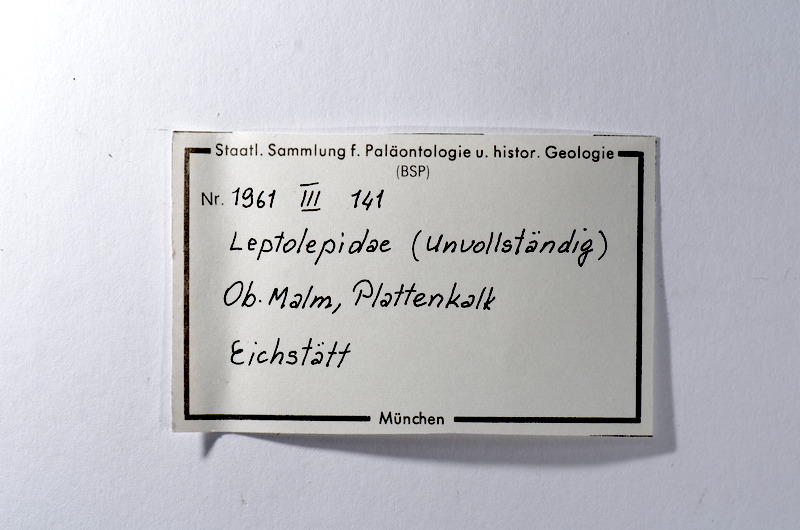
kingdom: Animalia
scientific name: Animalia
